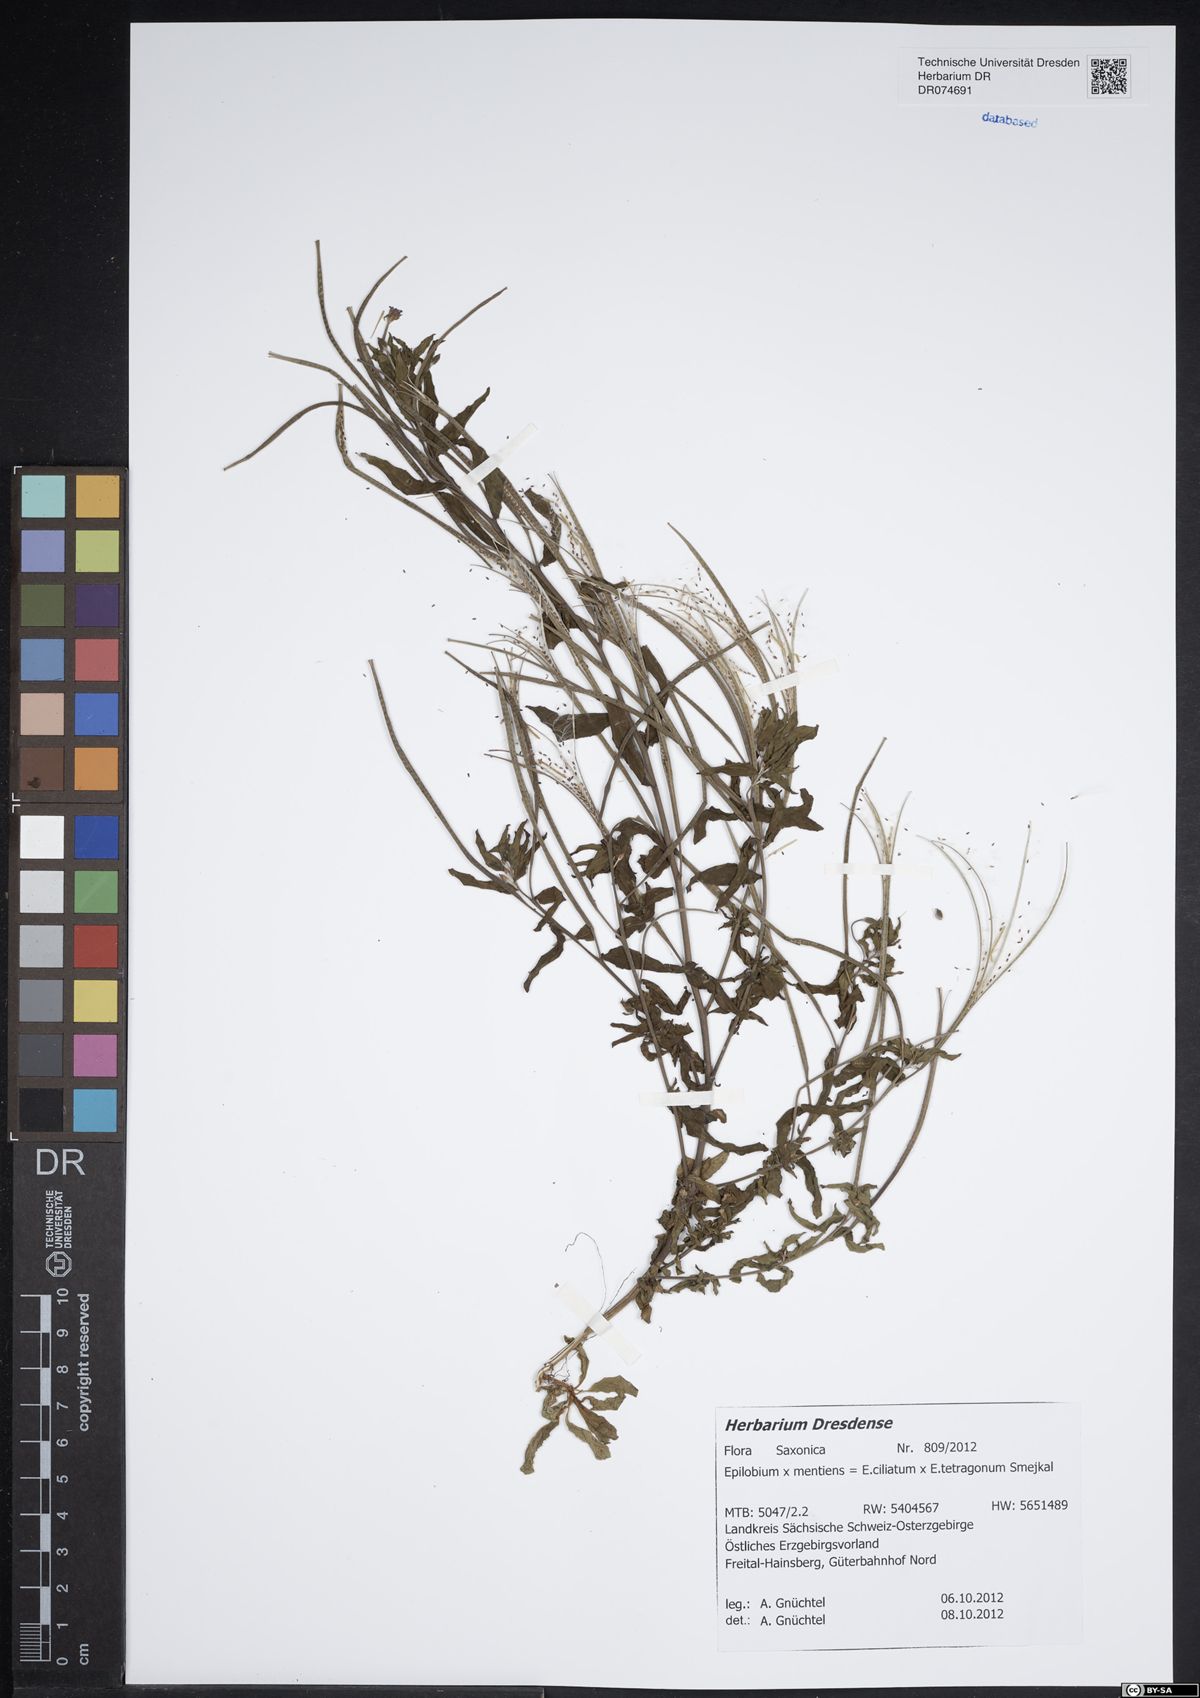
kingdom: Plantae
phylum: Tracheophyta
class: Magnoliopsida
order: Myrtales
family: Onagraceae
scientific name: Onagraceae
